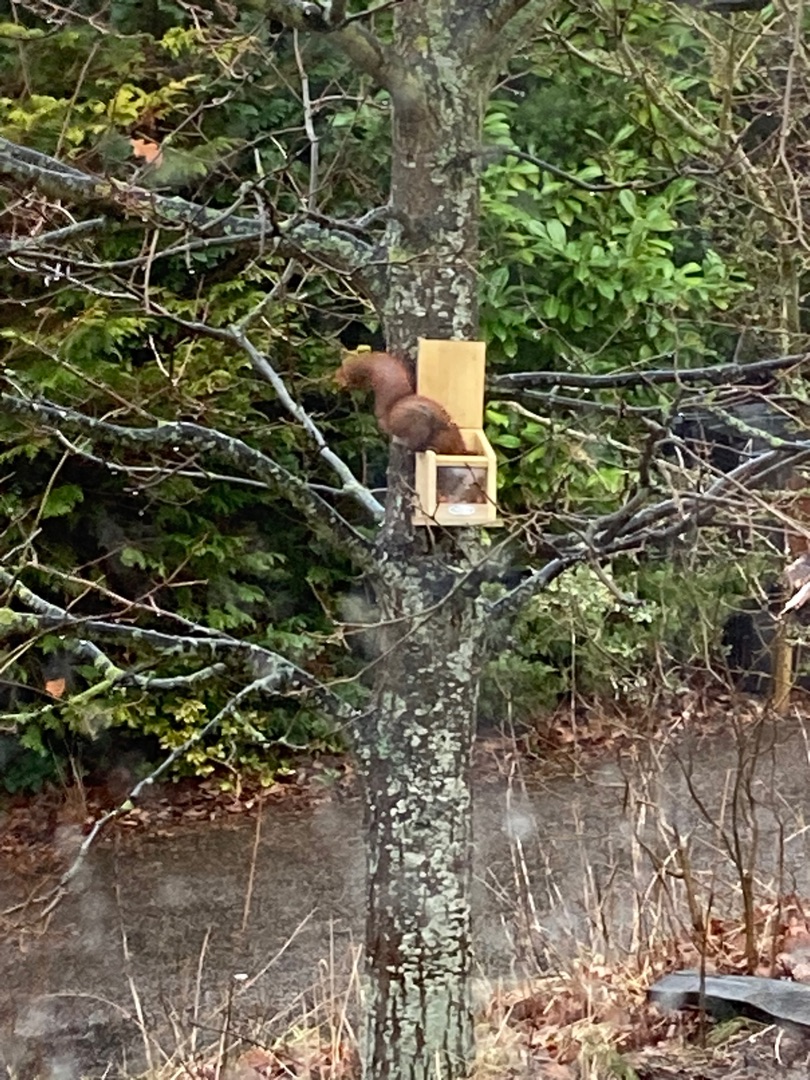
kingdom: Animalia
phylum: Chordata
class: Mammalia
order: Rodentia
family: Sciuridae
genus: Sciurus
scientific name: Sciurus vulgaris
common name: Egern
